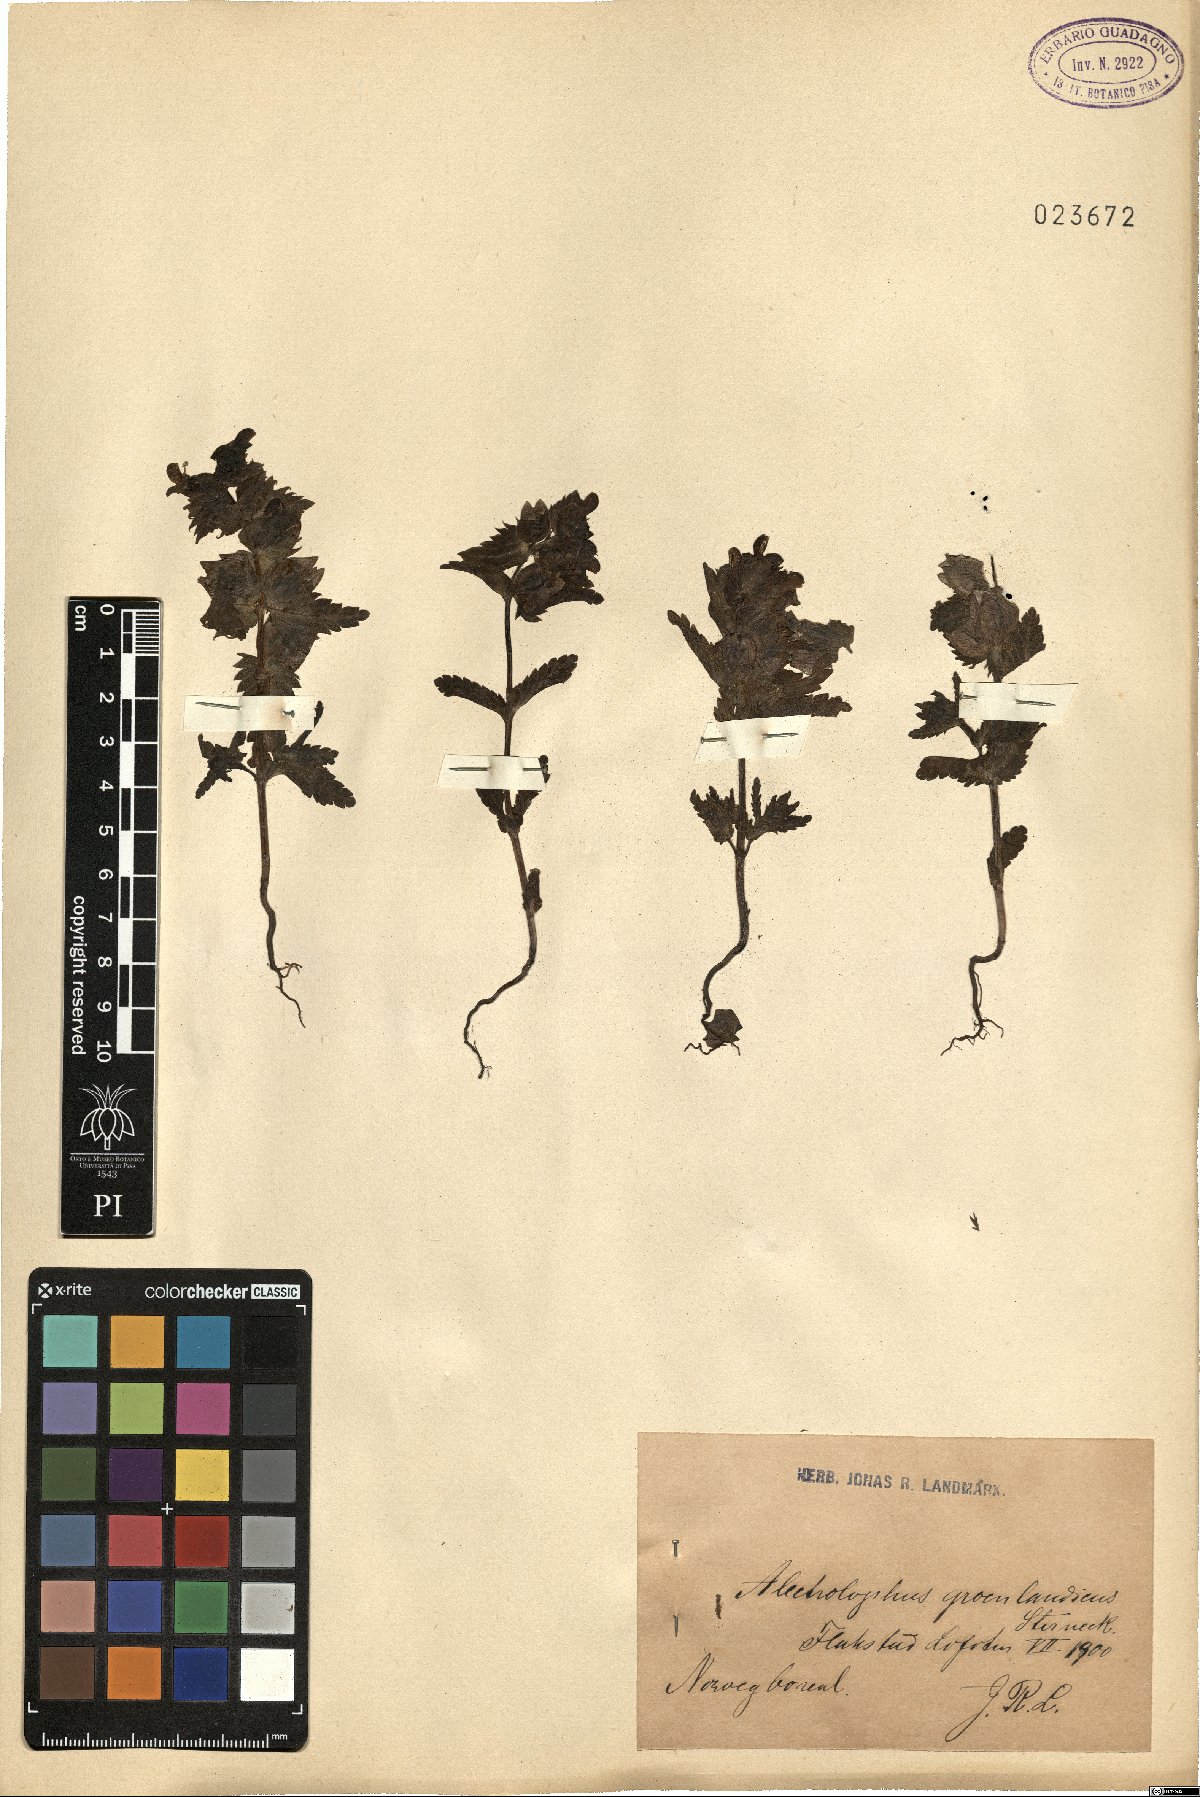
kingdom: Plantae
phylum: Tracheophyta
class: Magnoliopsida
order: Lamiales
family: Orobanchaceae
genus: Rhinanthus
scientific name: Rhinanthus groenlandicus
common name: Little yellow rattle
